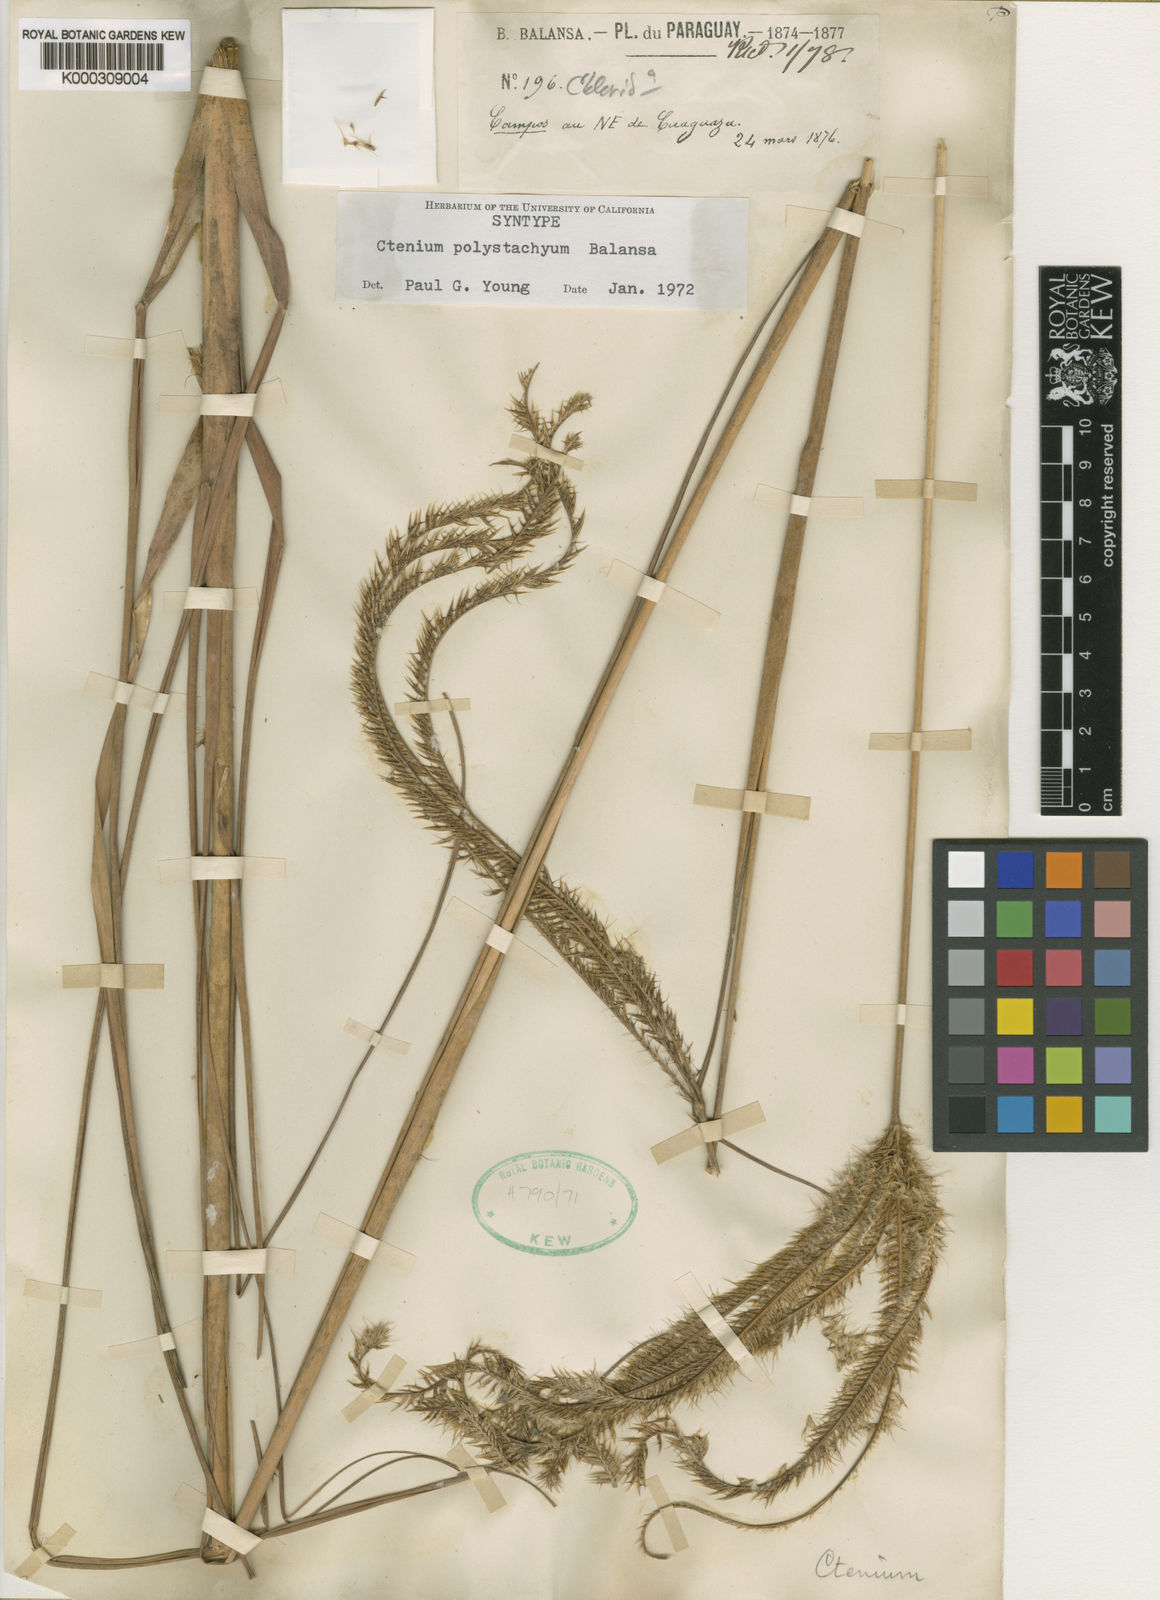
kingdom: Plantae
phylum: Tracheophyta
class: Liliopsida
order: Poales
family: Poaceae
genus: Ctenium
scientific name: Ctenium polystachyum
